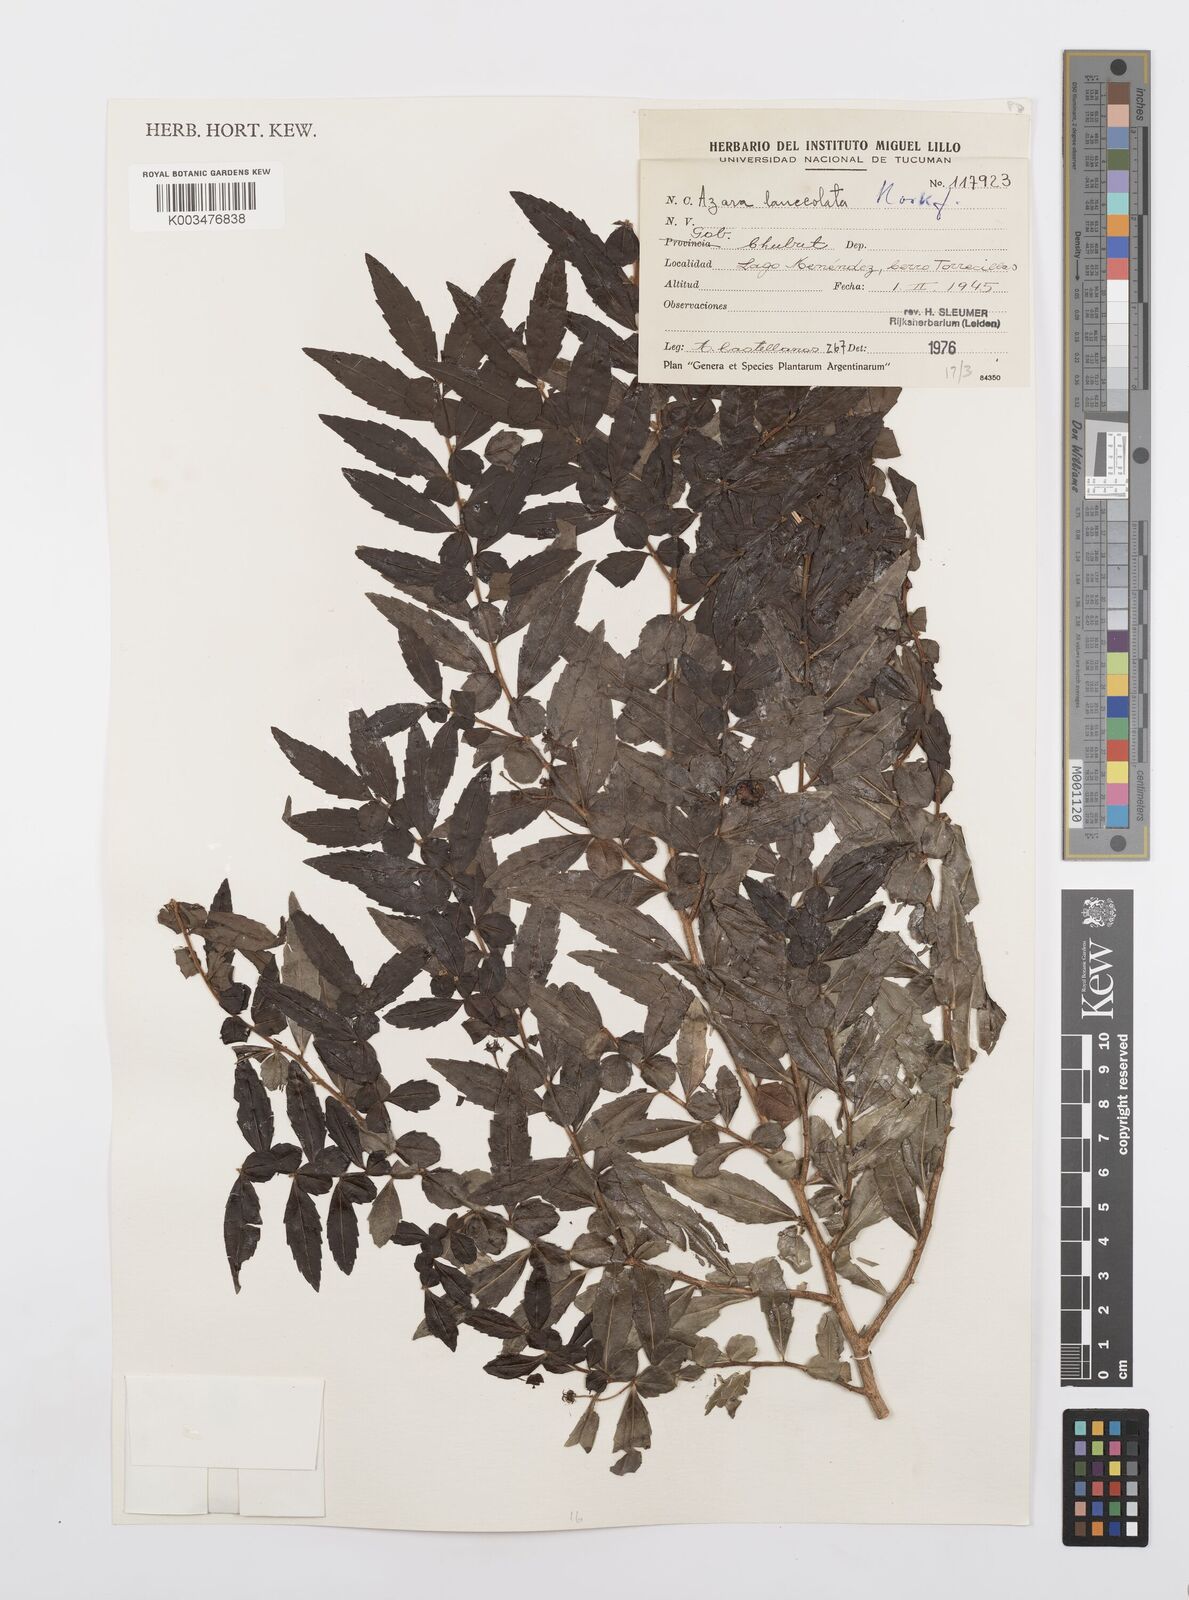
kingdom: Plantae
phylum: Tracheophyta
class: Magnoliopsida
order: Malpighiales
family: Salicaceae
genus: Azara
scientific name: Azara lanceolata
